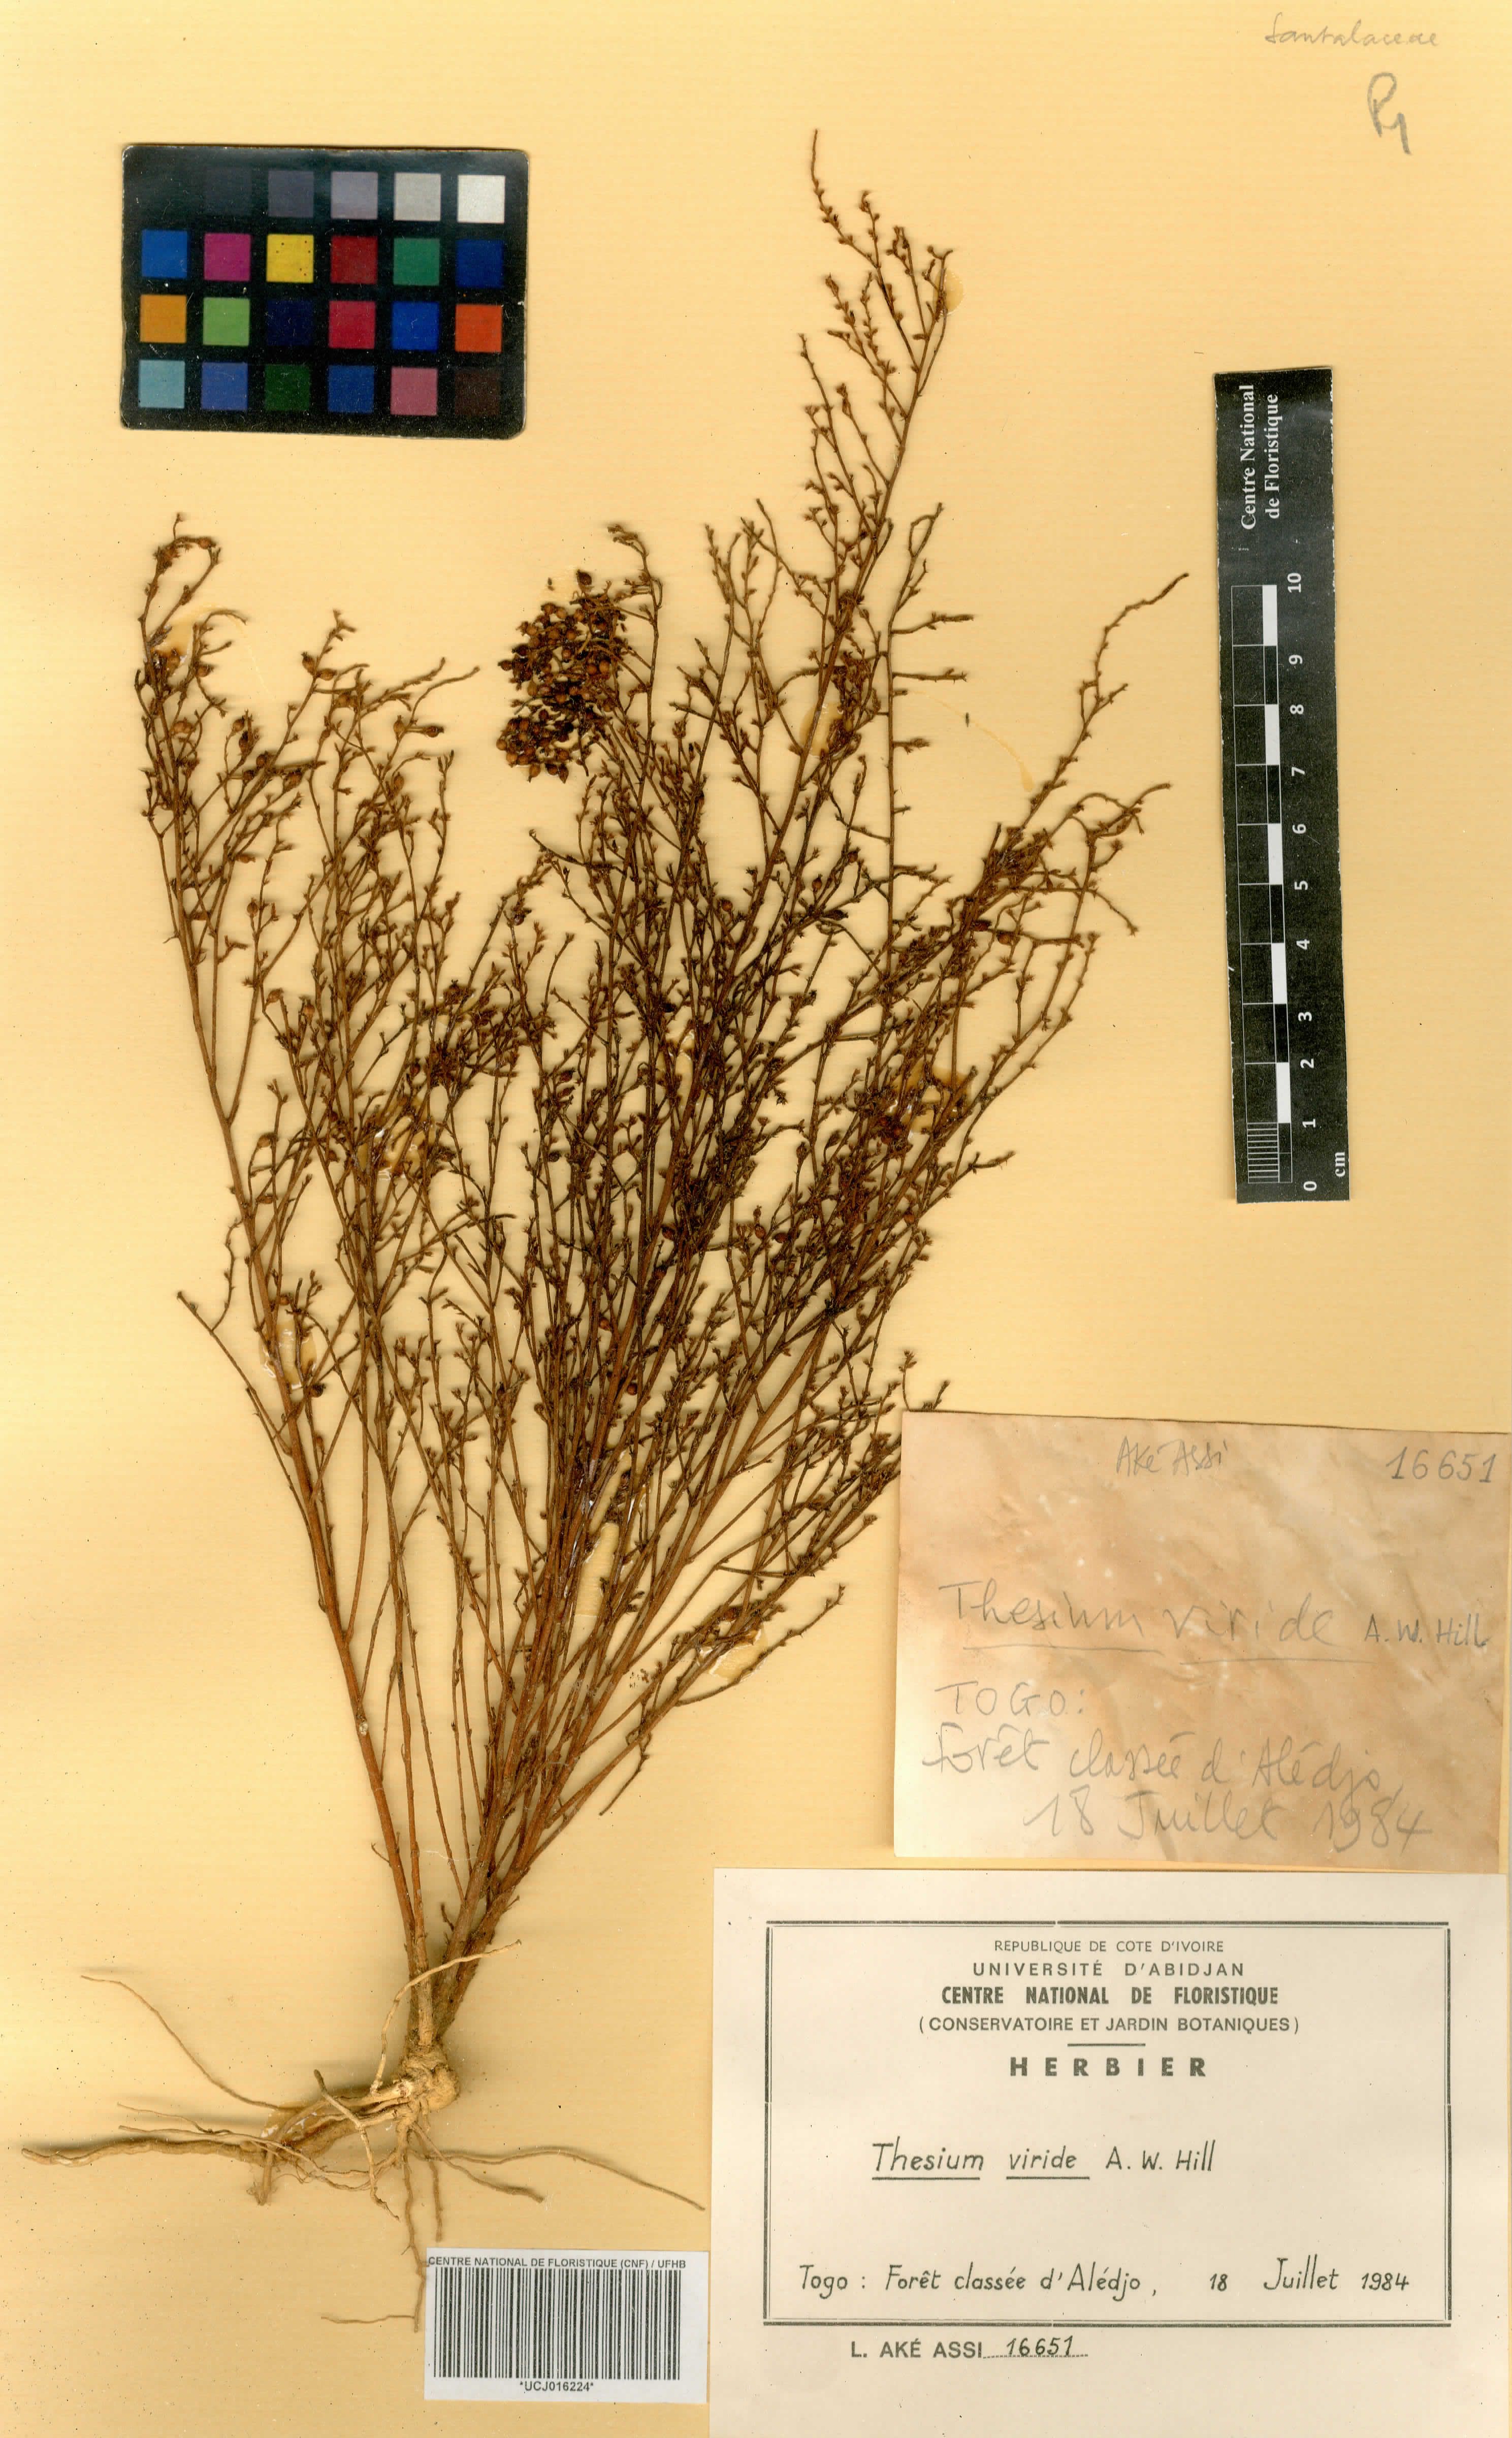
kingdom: Plantae
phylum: Tracheophyta
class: Magnoliopsida
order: Santalales
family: Thesiaceae
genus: Thesium
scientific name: Thesium viride
